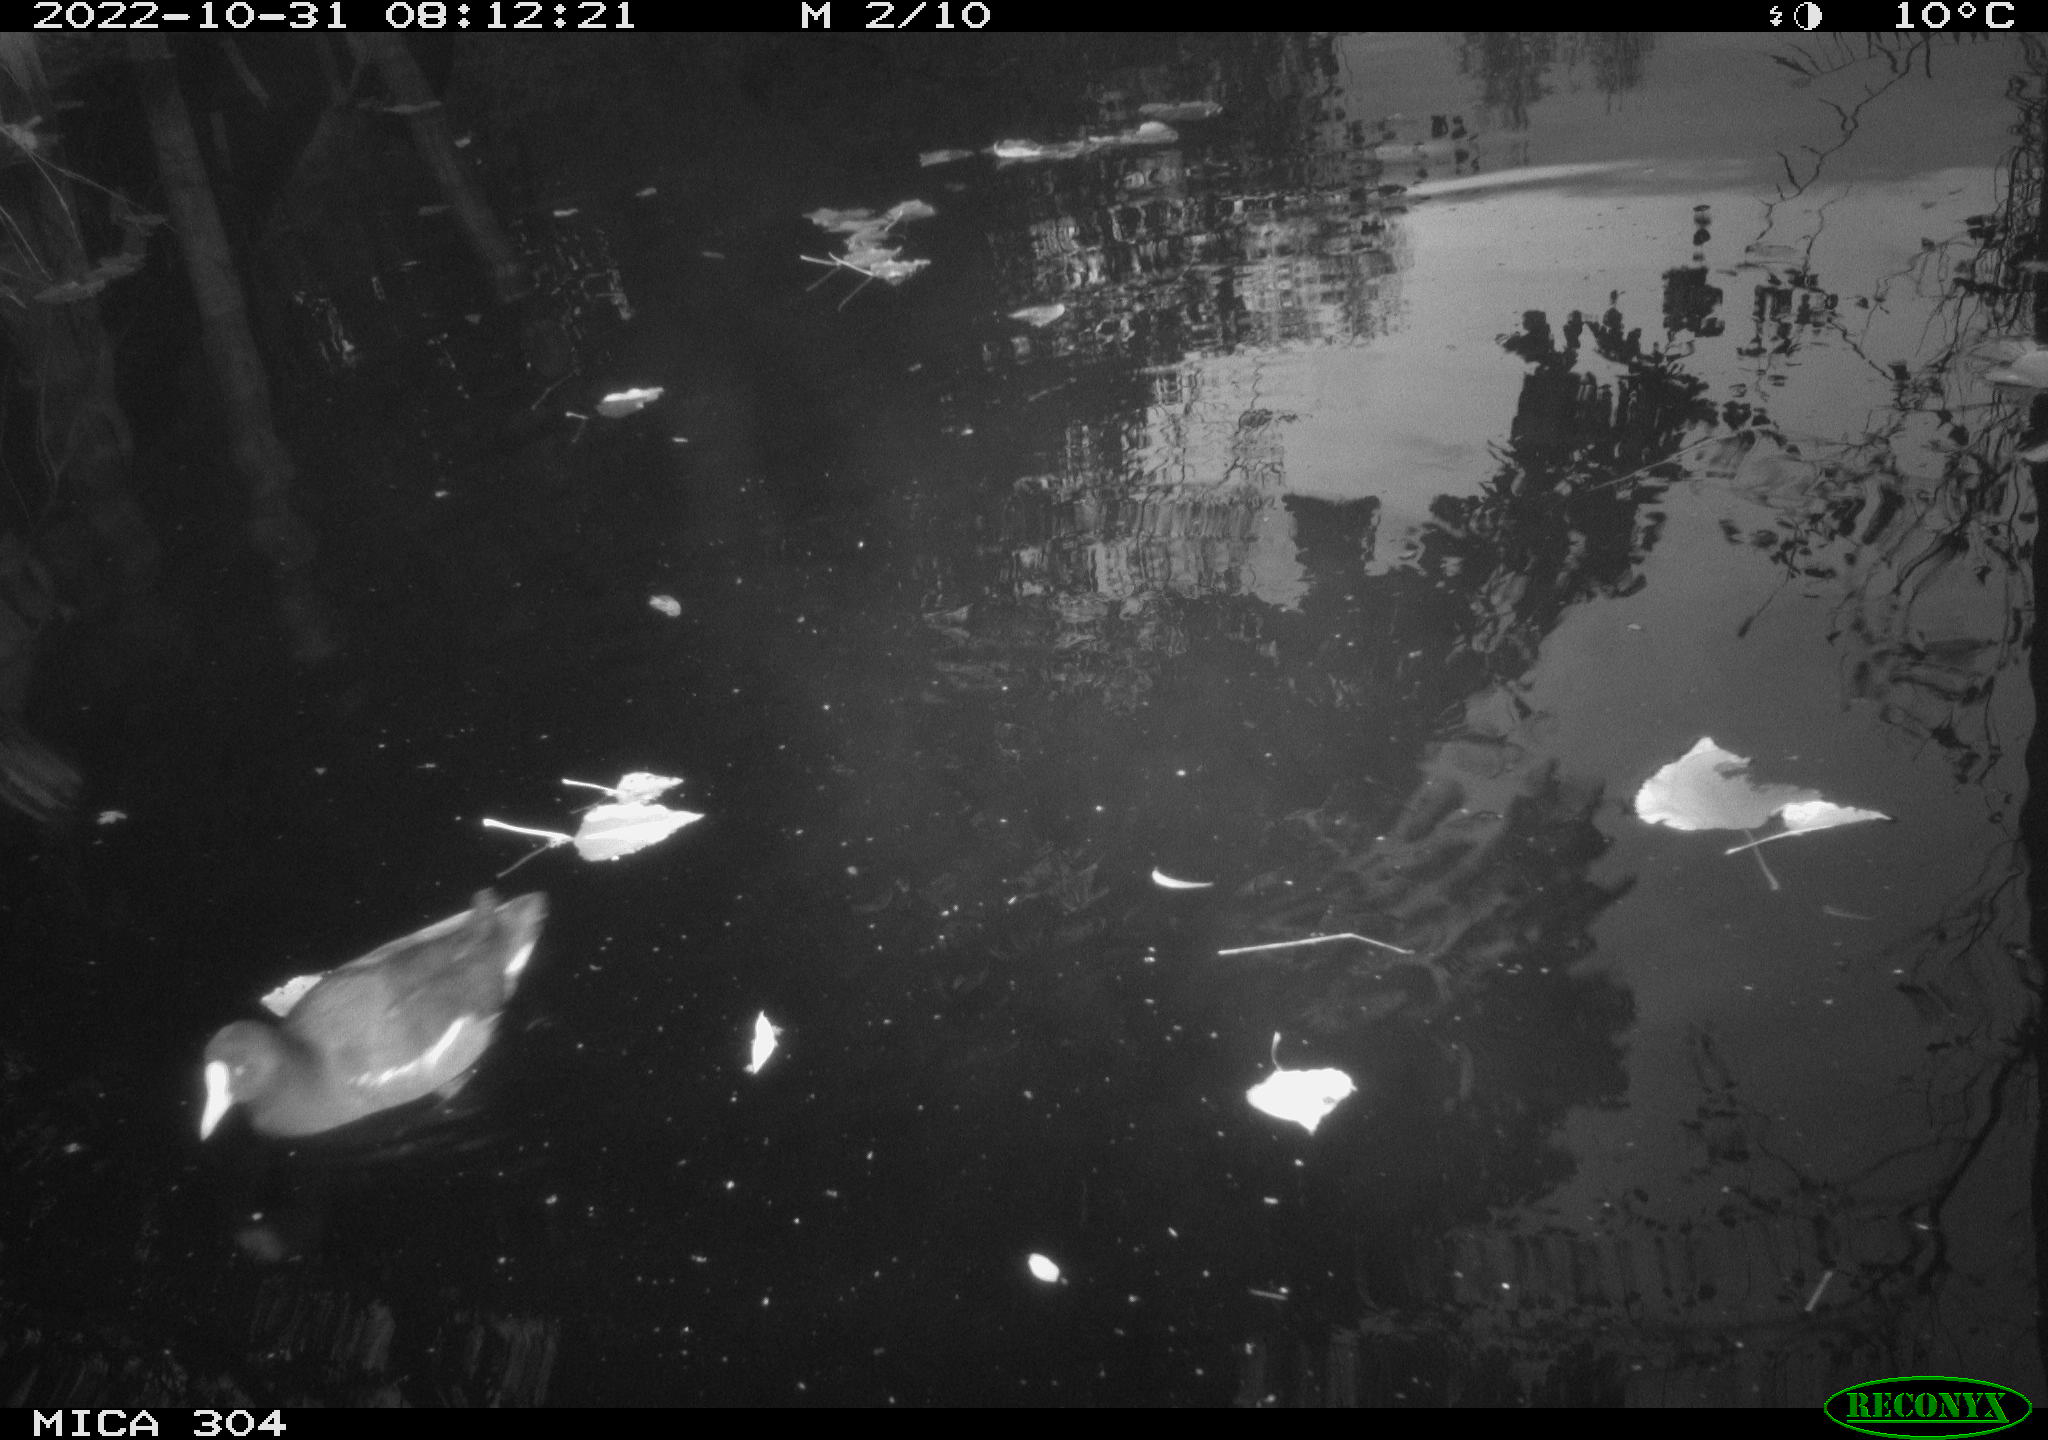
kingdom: Animalia
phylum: Chordata
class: Aves
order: Gruiformes
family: Rallidae
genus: Gallinula
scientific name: Gallinula chloropus
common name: Common moorhen
